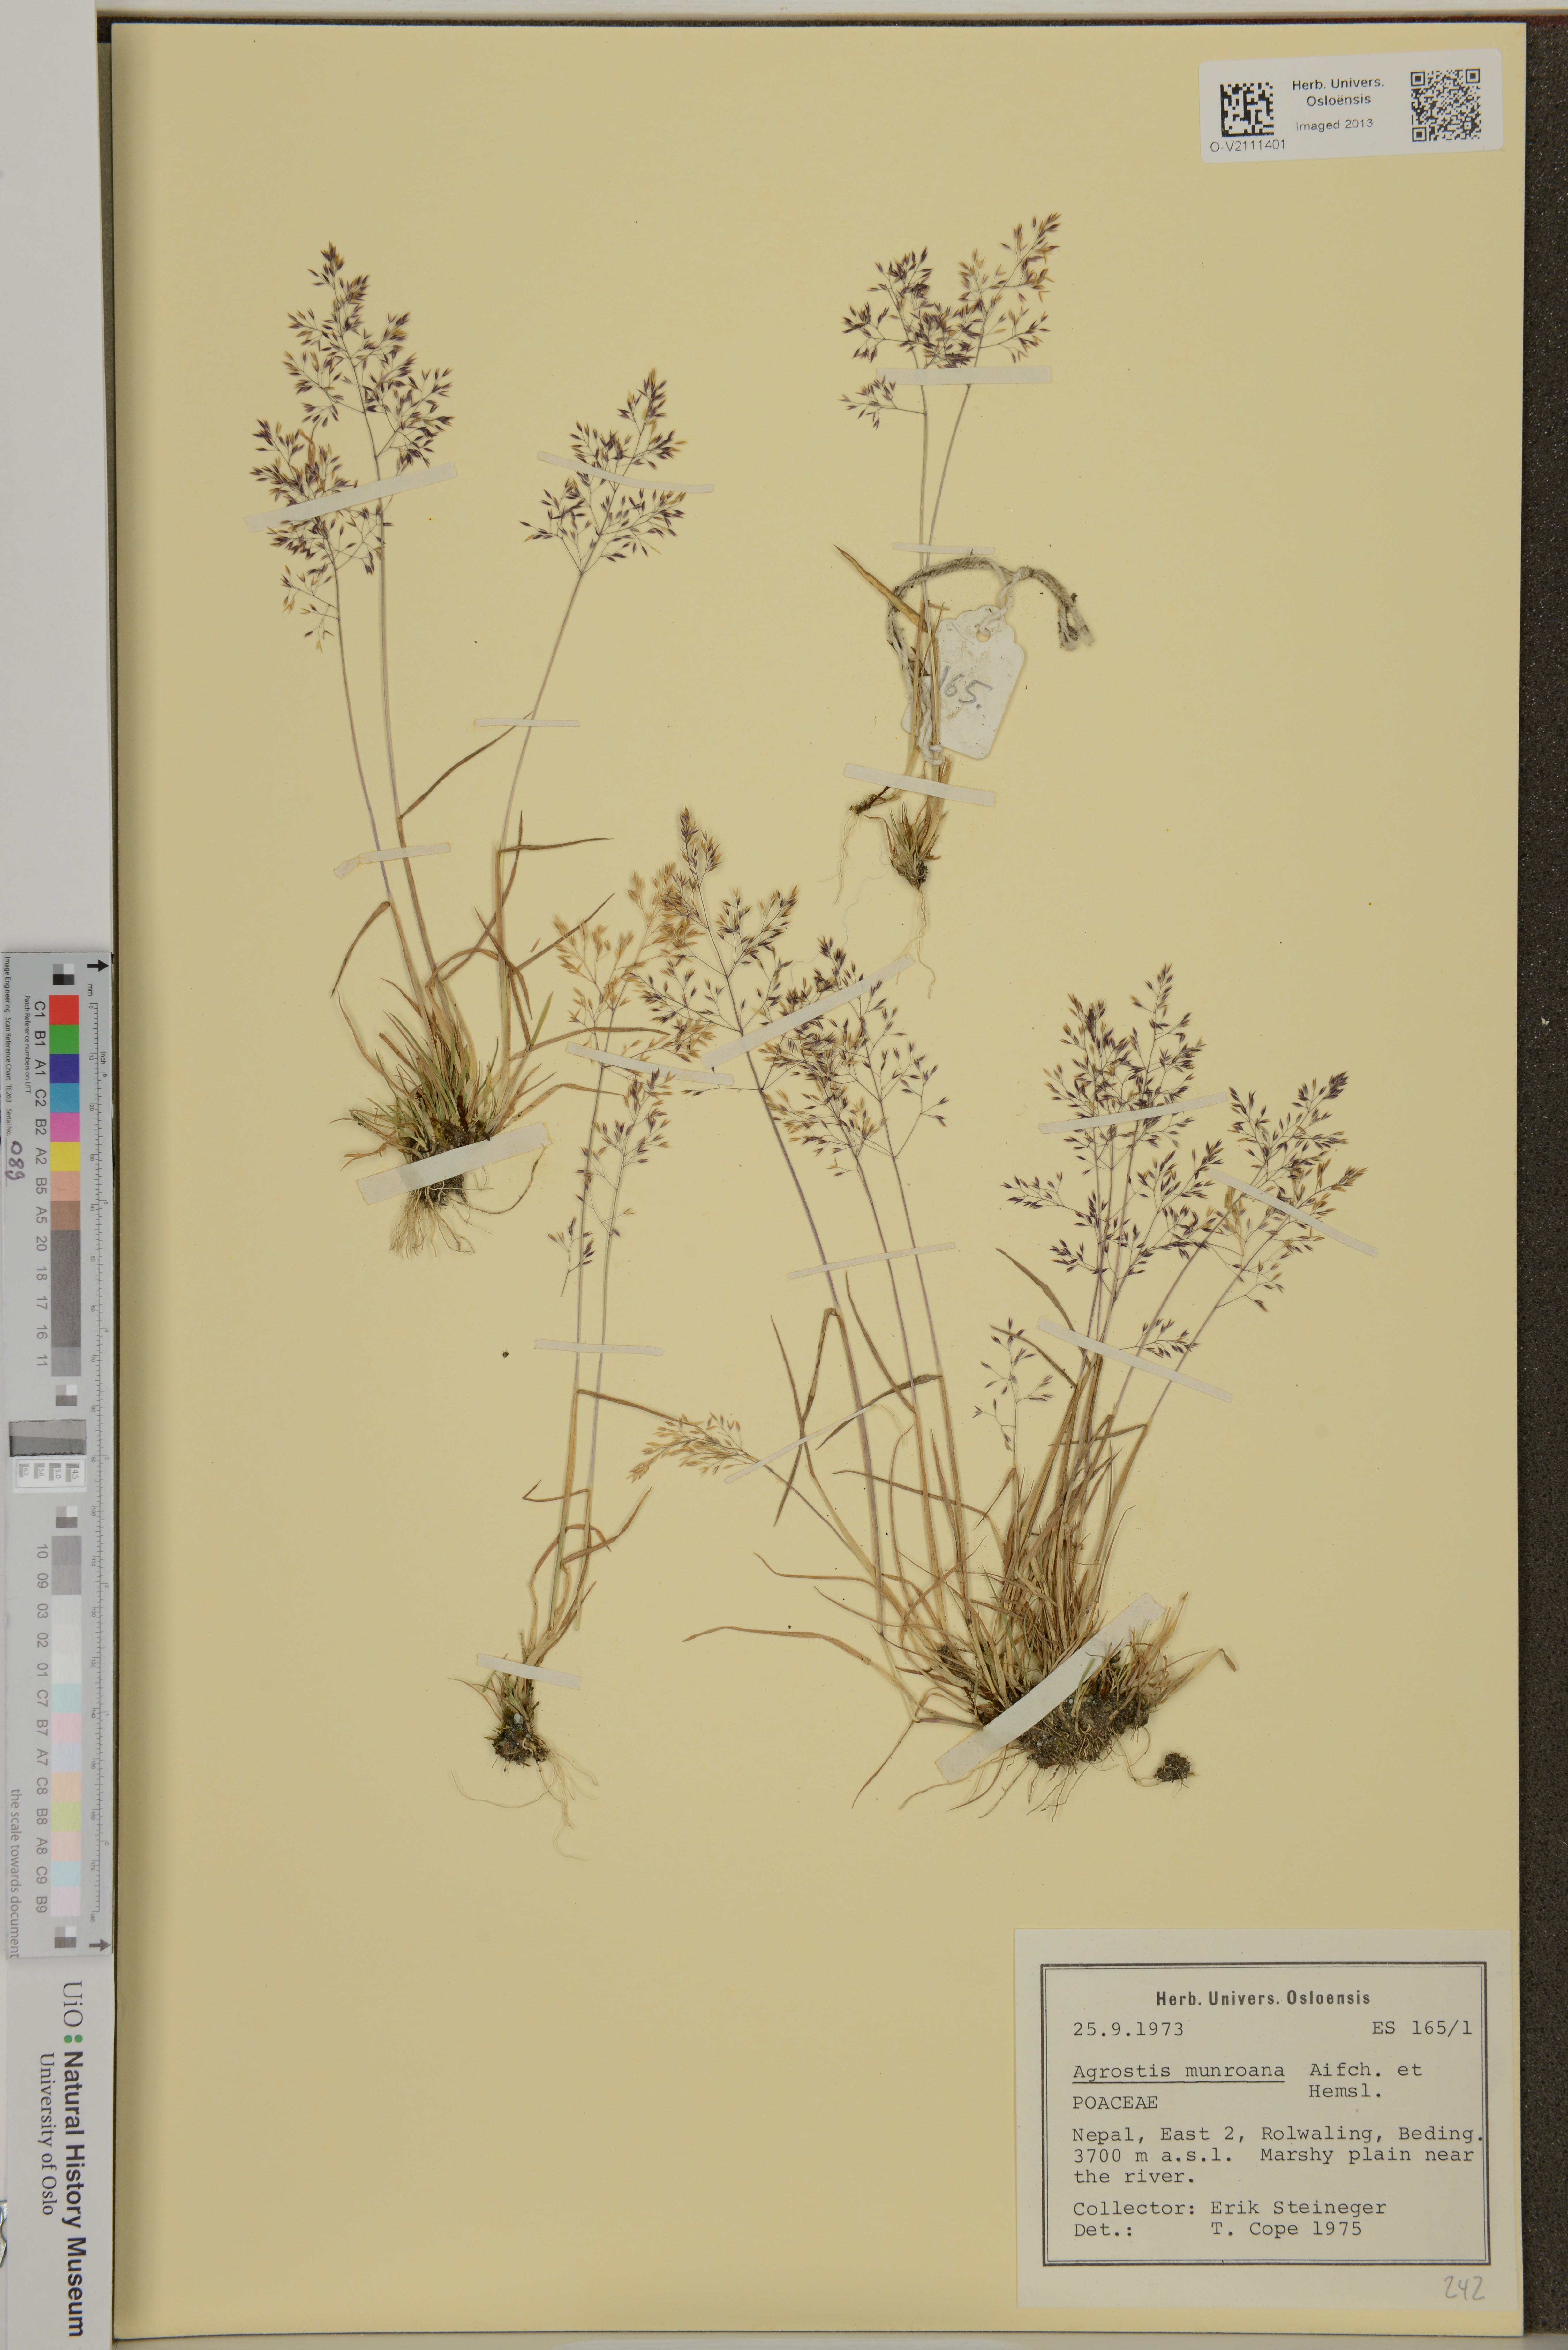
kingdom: Plantae
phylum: Tracheophyta
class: Liliopsida
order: Poales
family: Poaceae
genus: Agrostis
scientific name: Agrostis munroana
